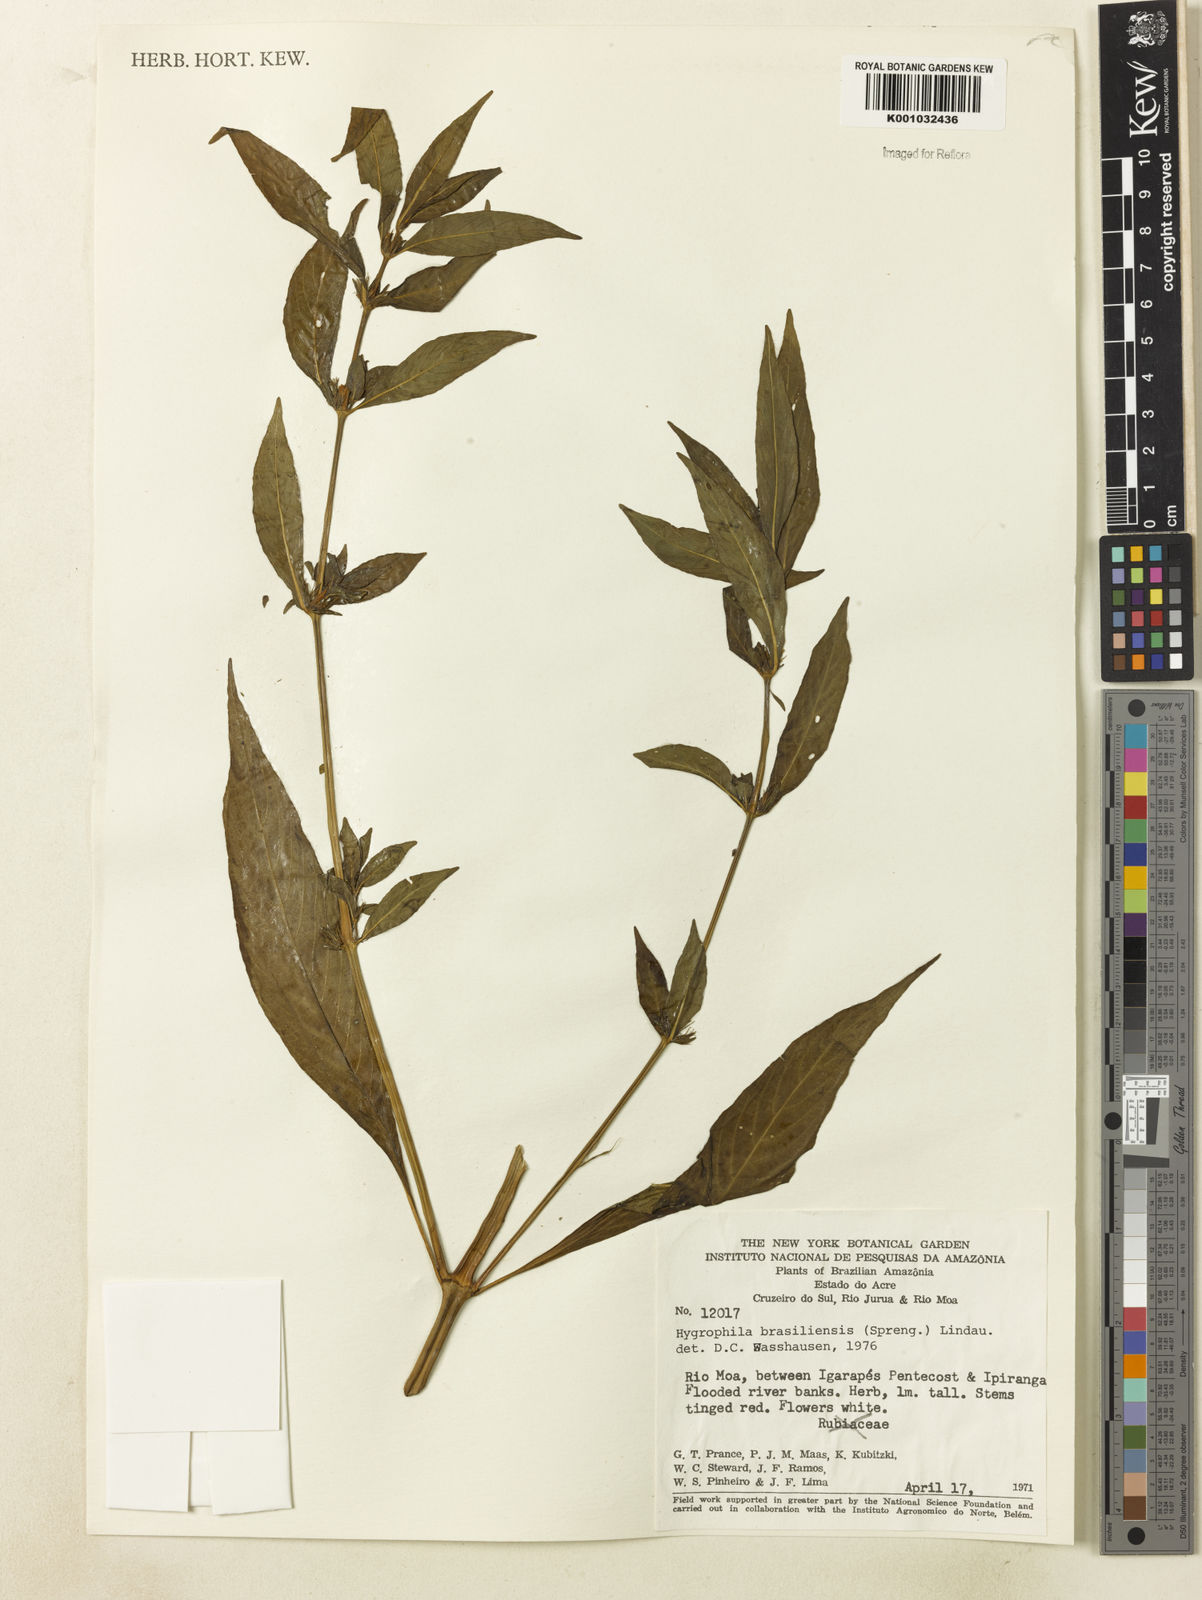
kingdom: Plantae
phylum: Tracheophyta
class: Magnoliopsida
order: Lamiales
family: Acanthaceae
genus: Hygrophila
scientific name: Hygrophila costata
